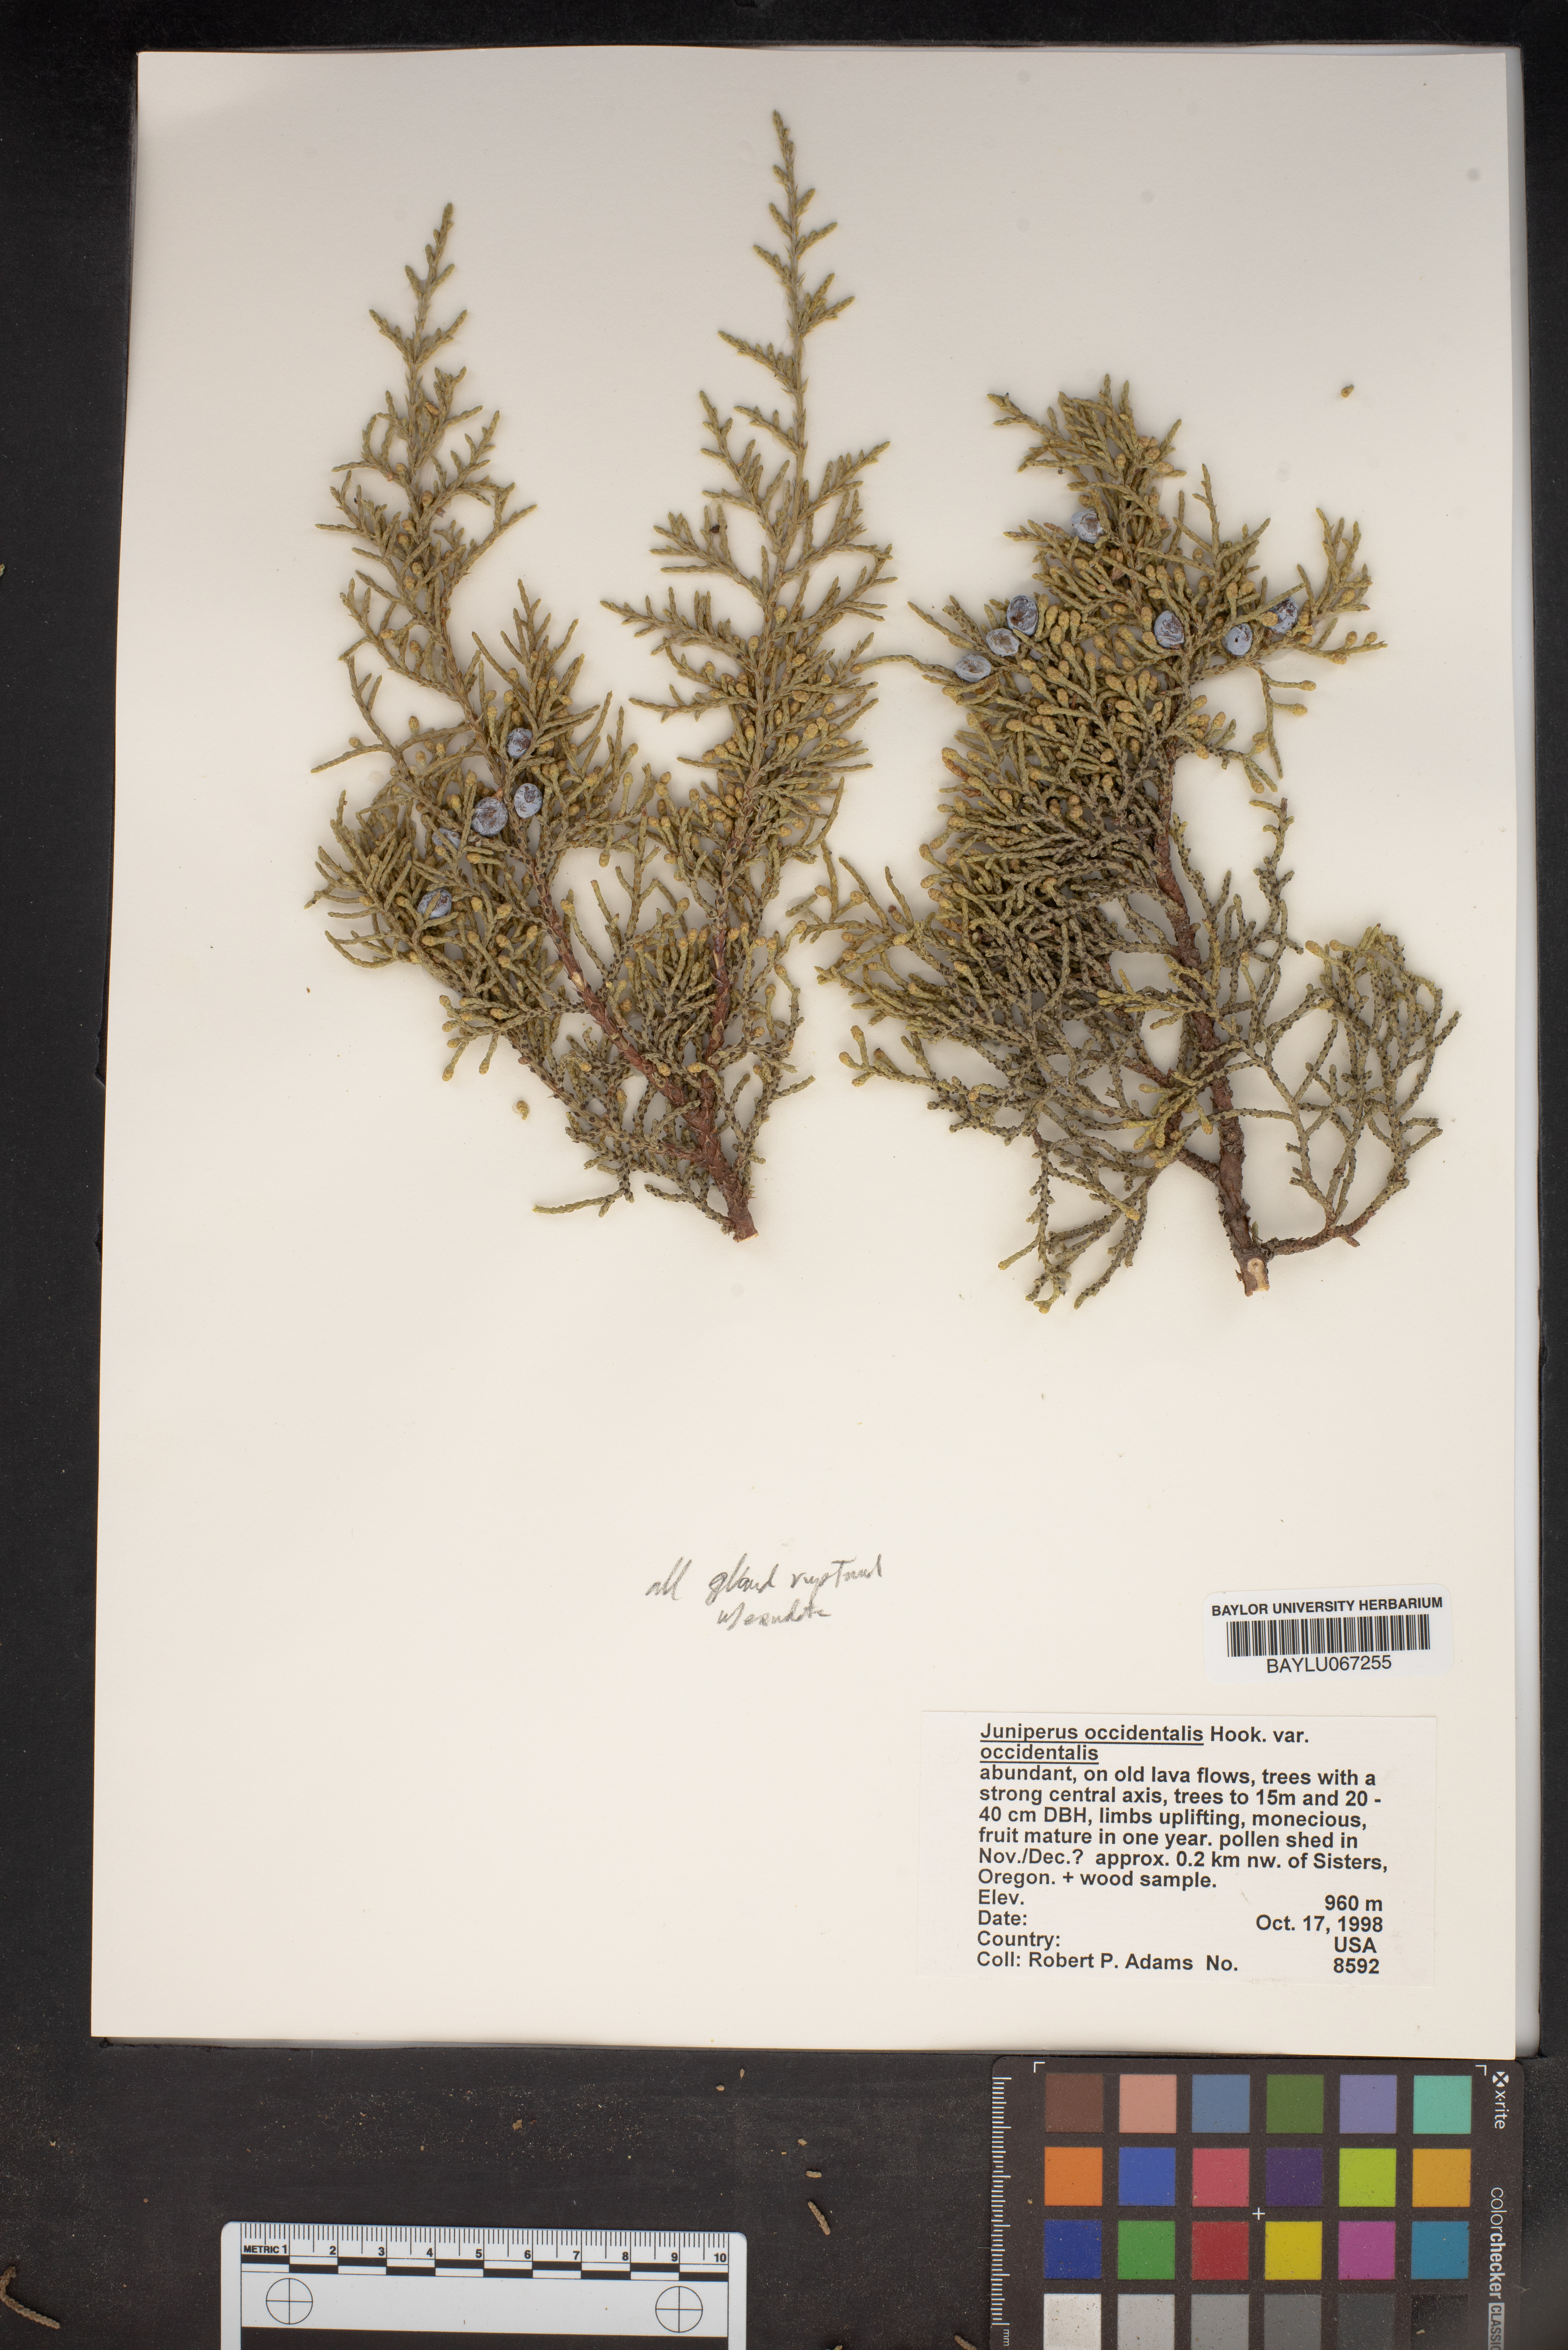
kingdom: Plantae
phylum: Tracheophyta
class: Pinopsida
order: Pinales
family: Cupressaceae
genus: Juniperus
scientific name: Juniperus occidentalis
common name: Western juniper
